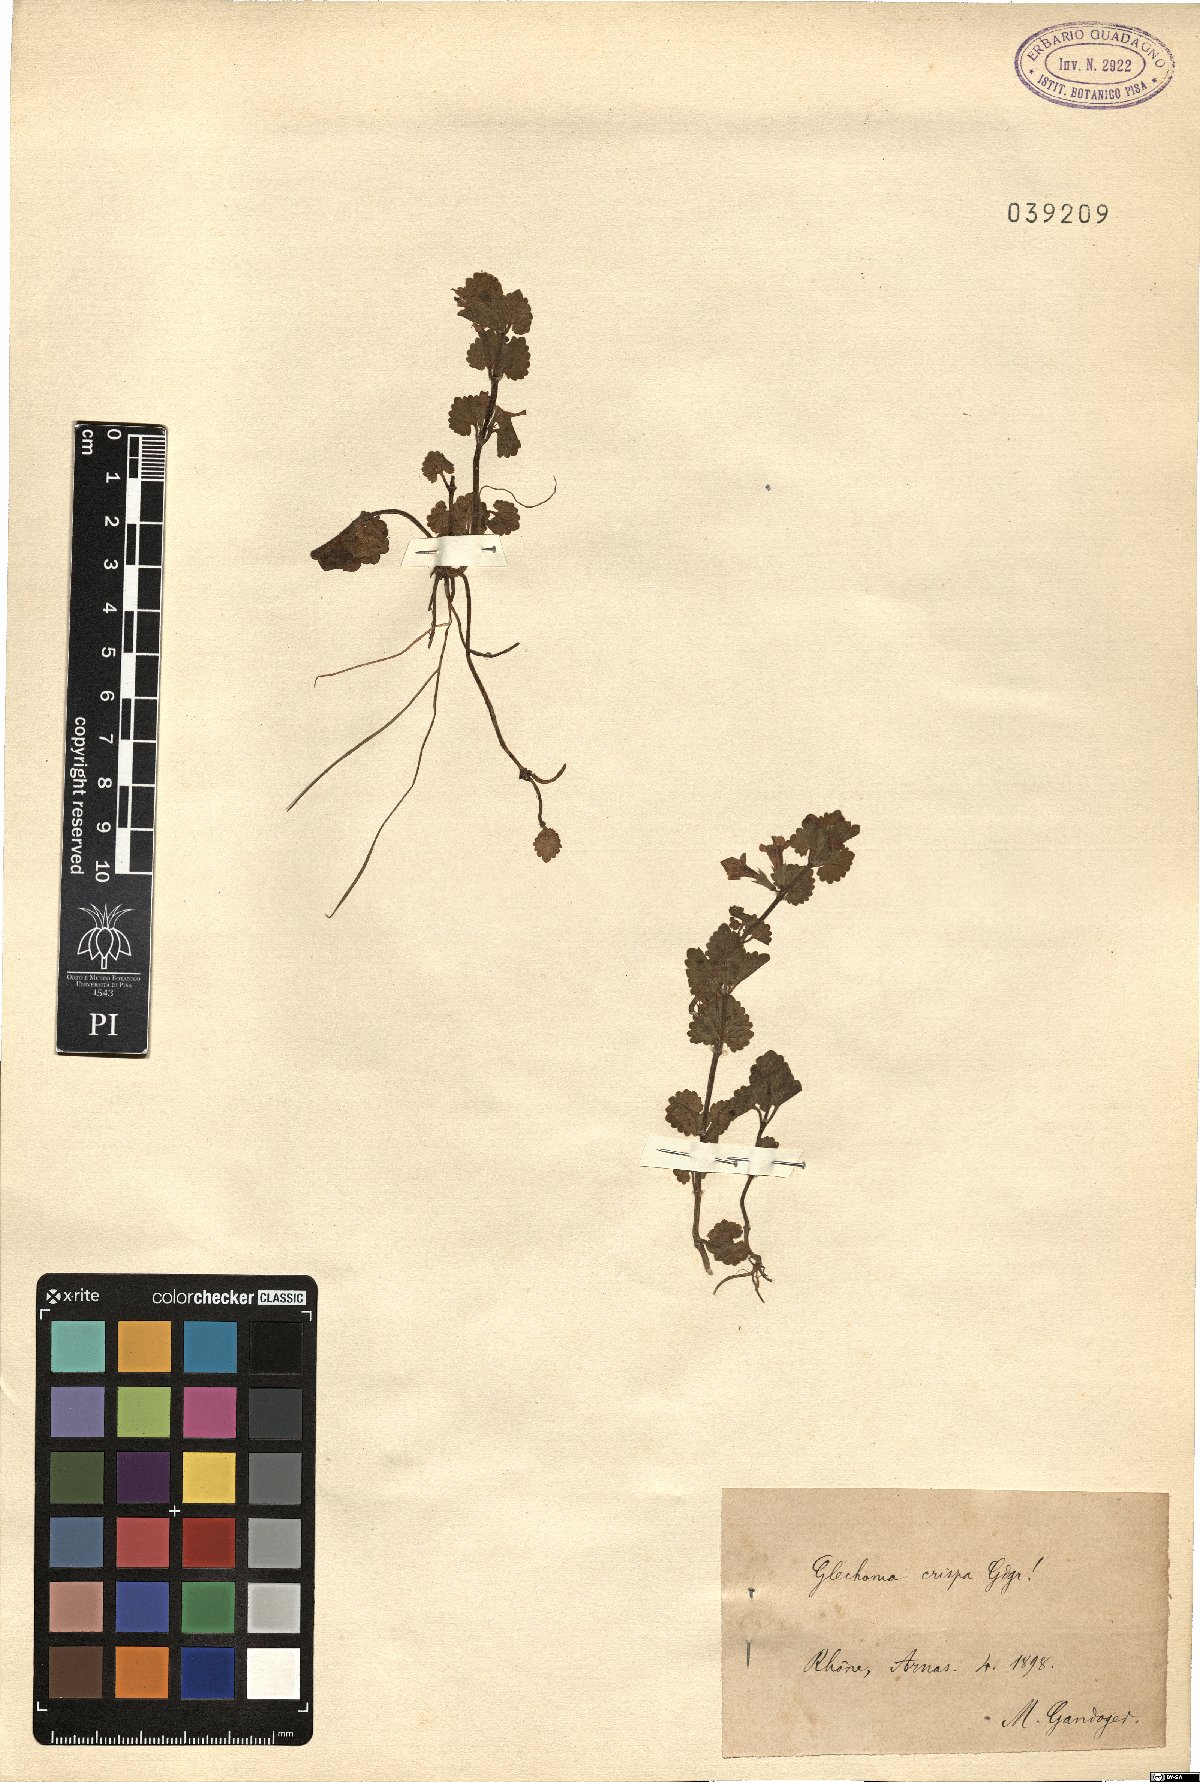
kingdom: Plantae
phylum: Tracheophyta
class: Magnoliopsida
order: Lamiales
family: Lamiaceae
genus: Nepeta
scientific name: Nepeta crispa
